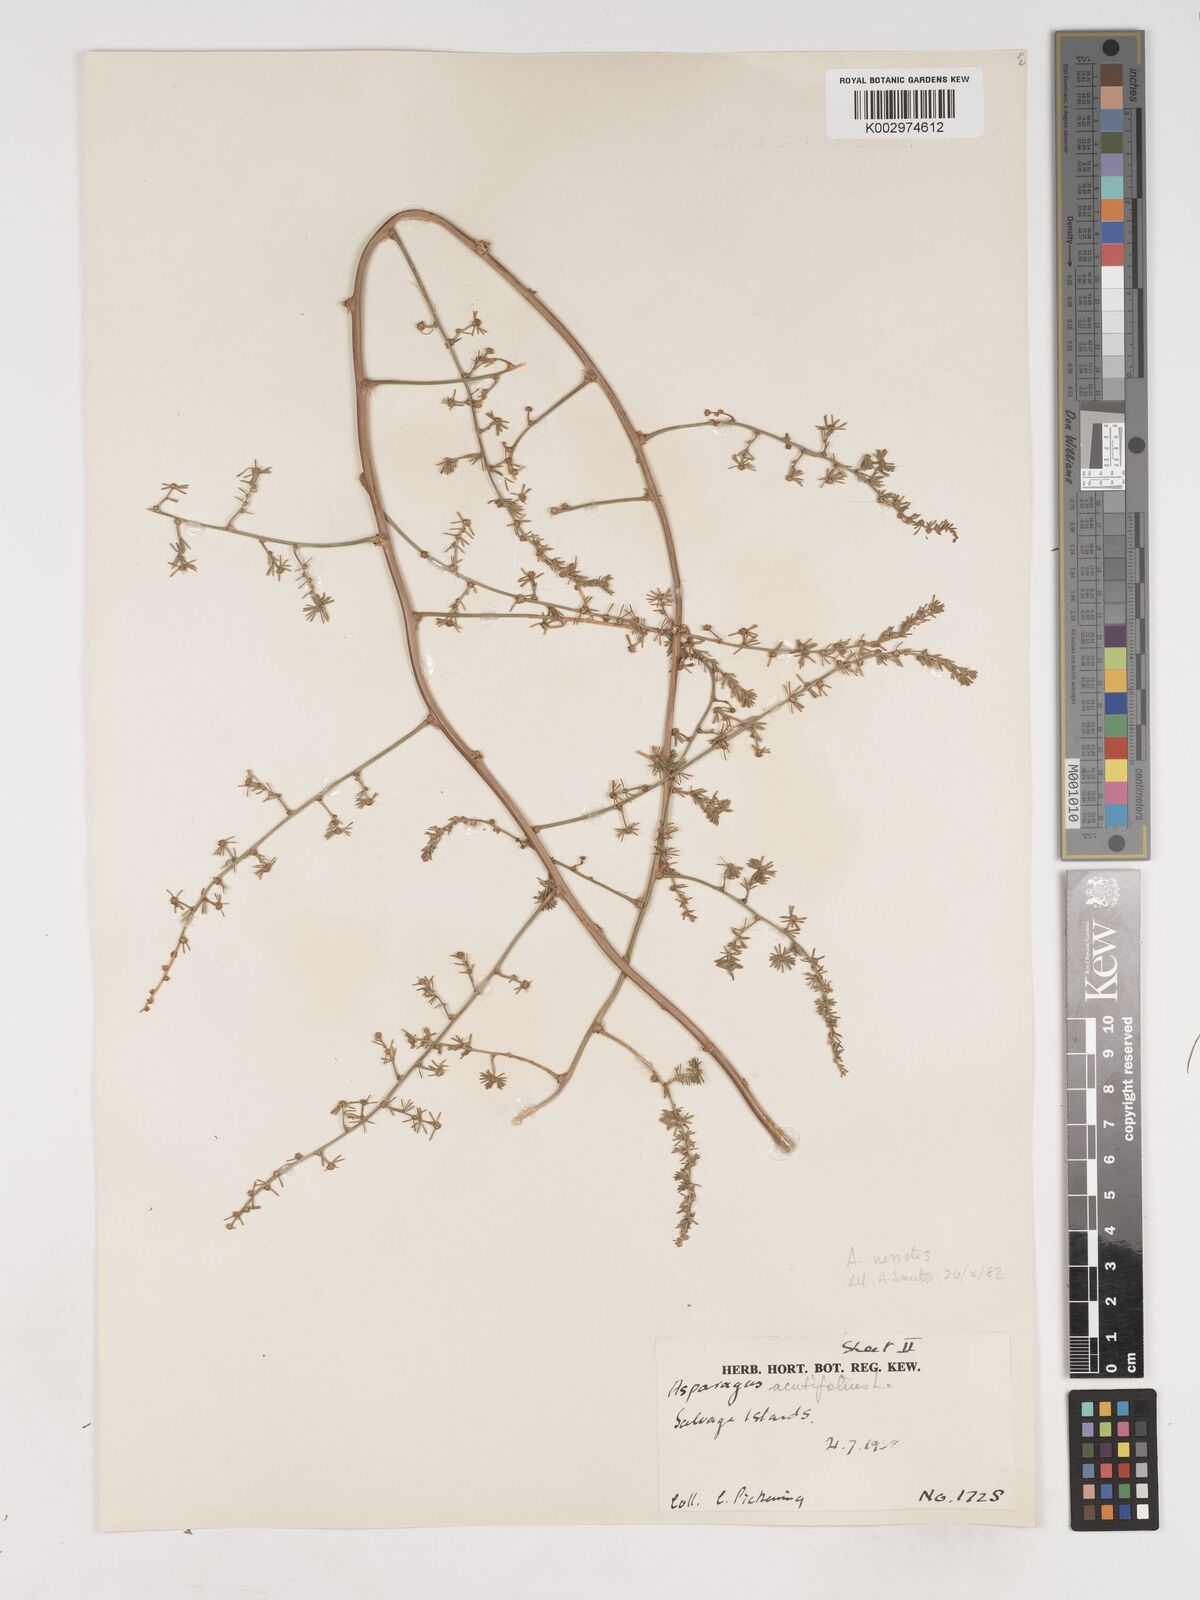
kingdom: Plantae
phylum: Tracheophyta
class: Liliopsida
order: Asparagales
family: Asparagaceae
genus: Asparagus
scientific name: Asparagus acutifolius
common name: Wild asparagus
